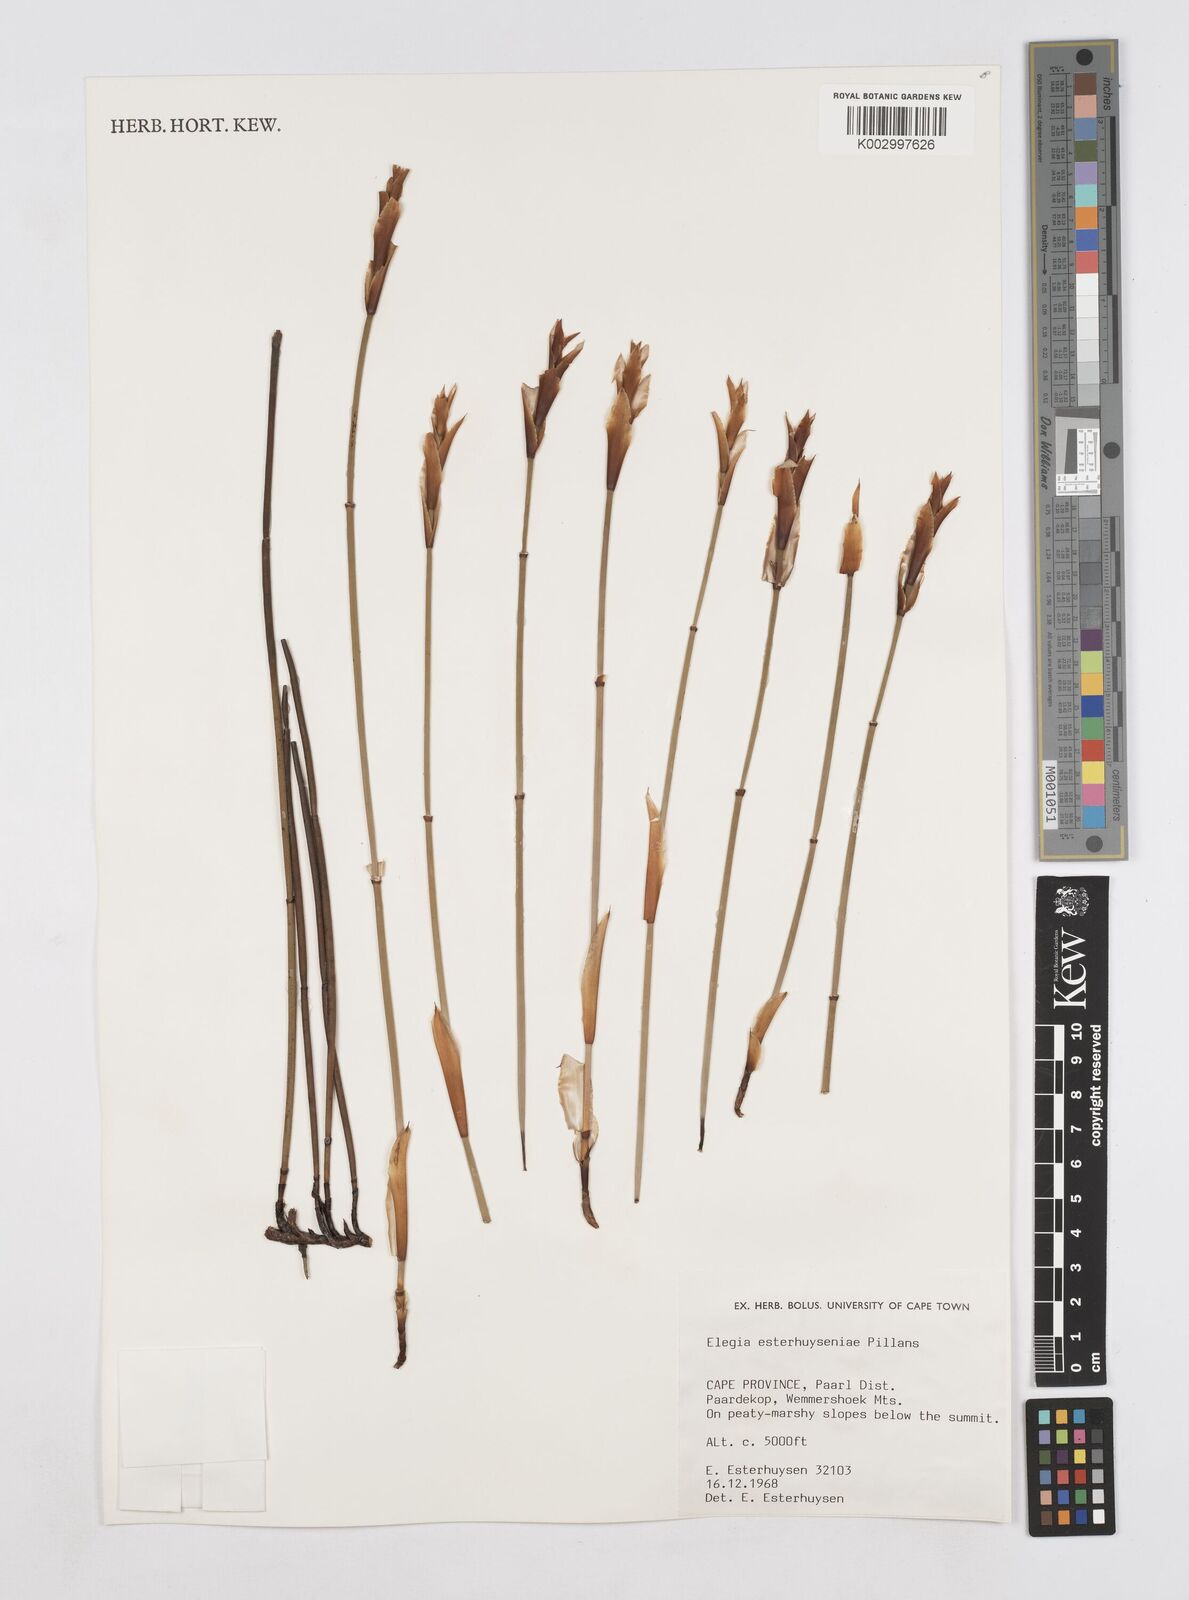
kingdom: Plantae
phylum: Tracheophyta
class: Liliopsida
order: Poales
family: Restionaceae
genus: Elegia
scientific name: Elegia esterhuyseniae
